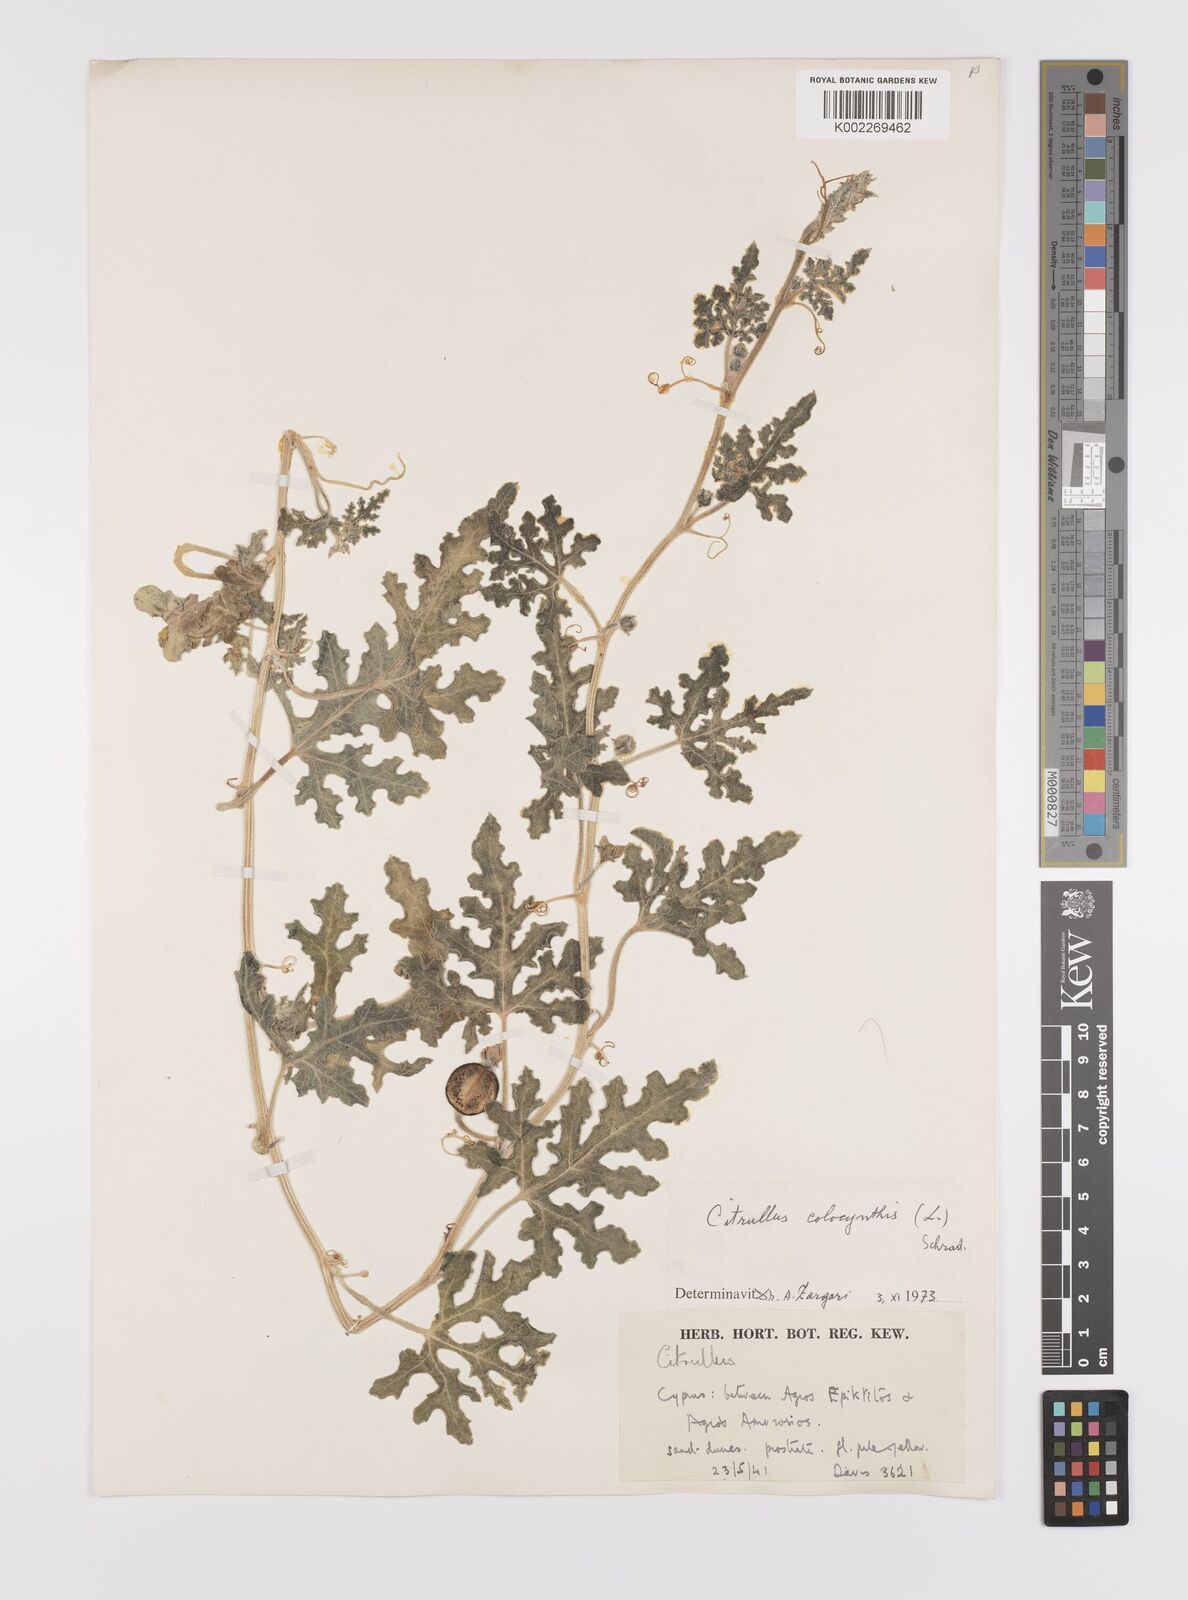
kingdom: Plantae
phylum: Tracheophyta
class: Magnoliopsida
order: Cucurbitales
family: Cucurbitaceae
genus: Citrullus
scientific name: Citrullus colocynthis
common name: Colocynth
